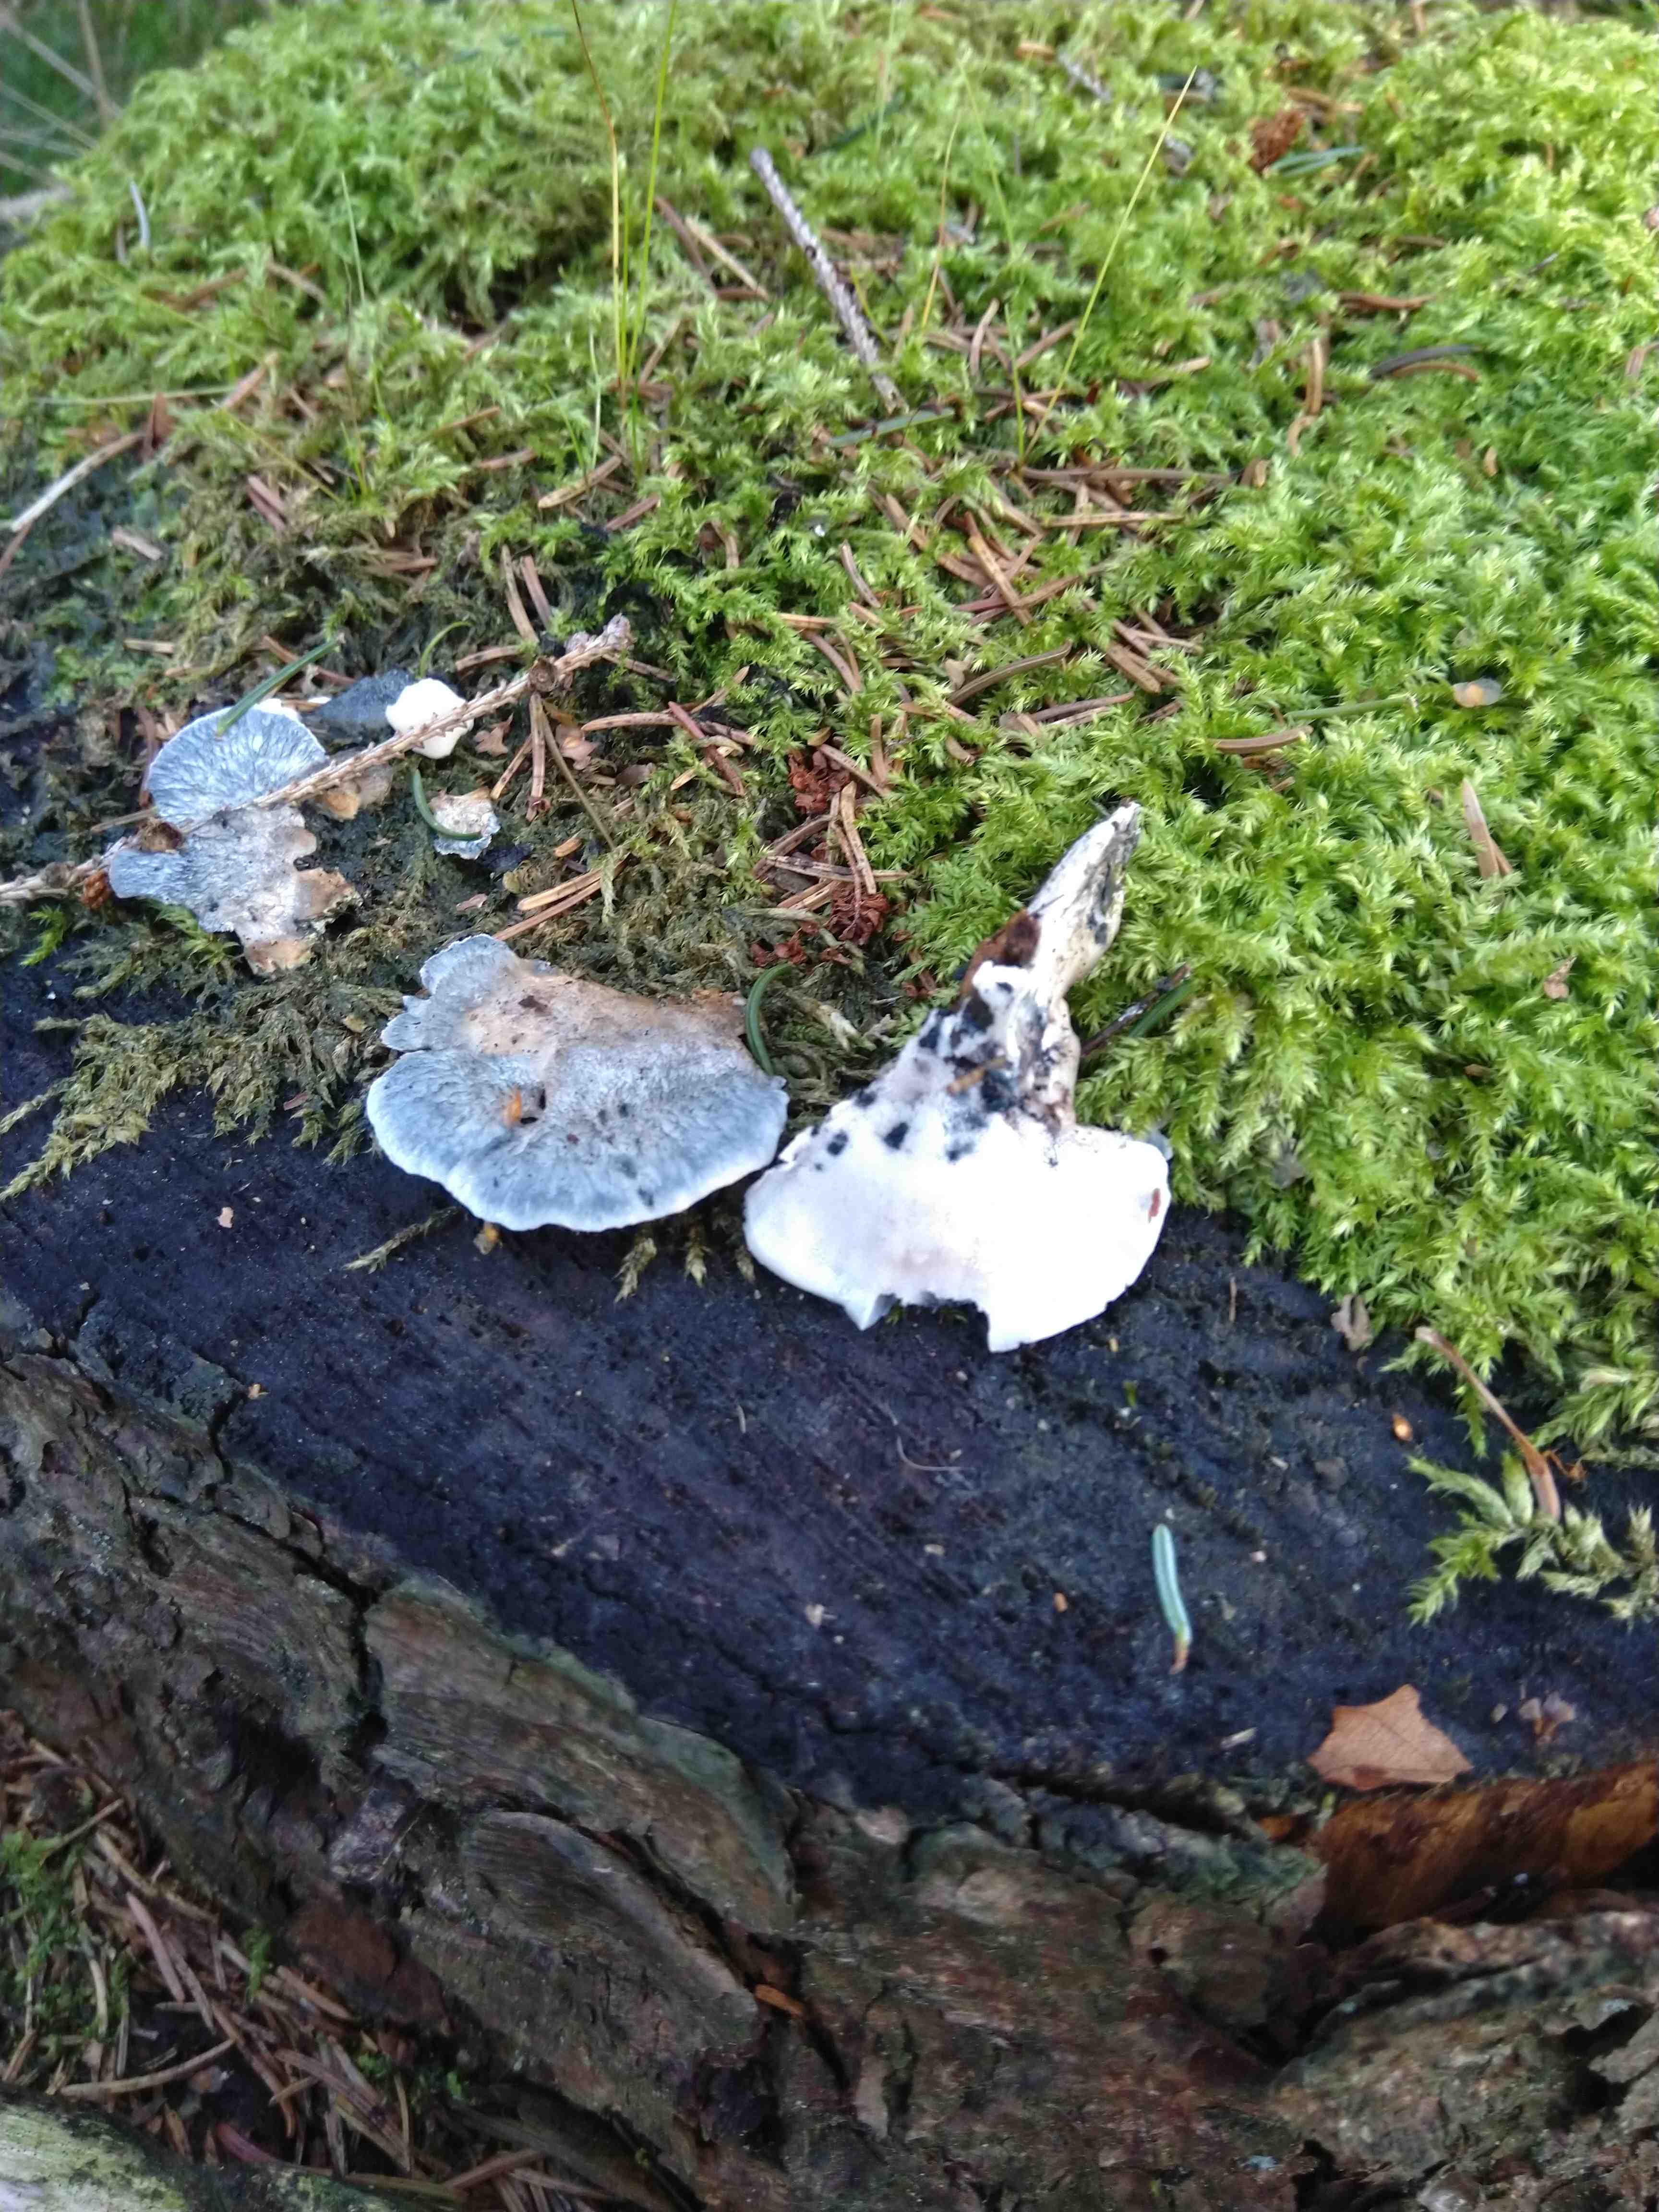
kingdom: Fungi
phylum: Basidiomycota
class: Agaricomycetes
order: Polyporales
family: Polyporaceae
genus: Cyanosporus
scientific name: Cyanosporus caesius
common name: blålig kødporesvamp
